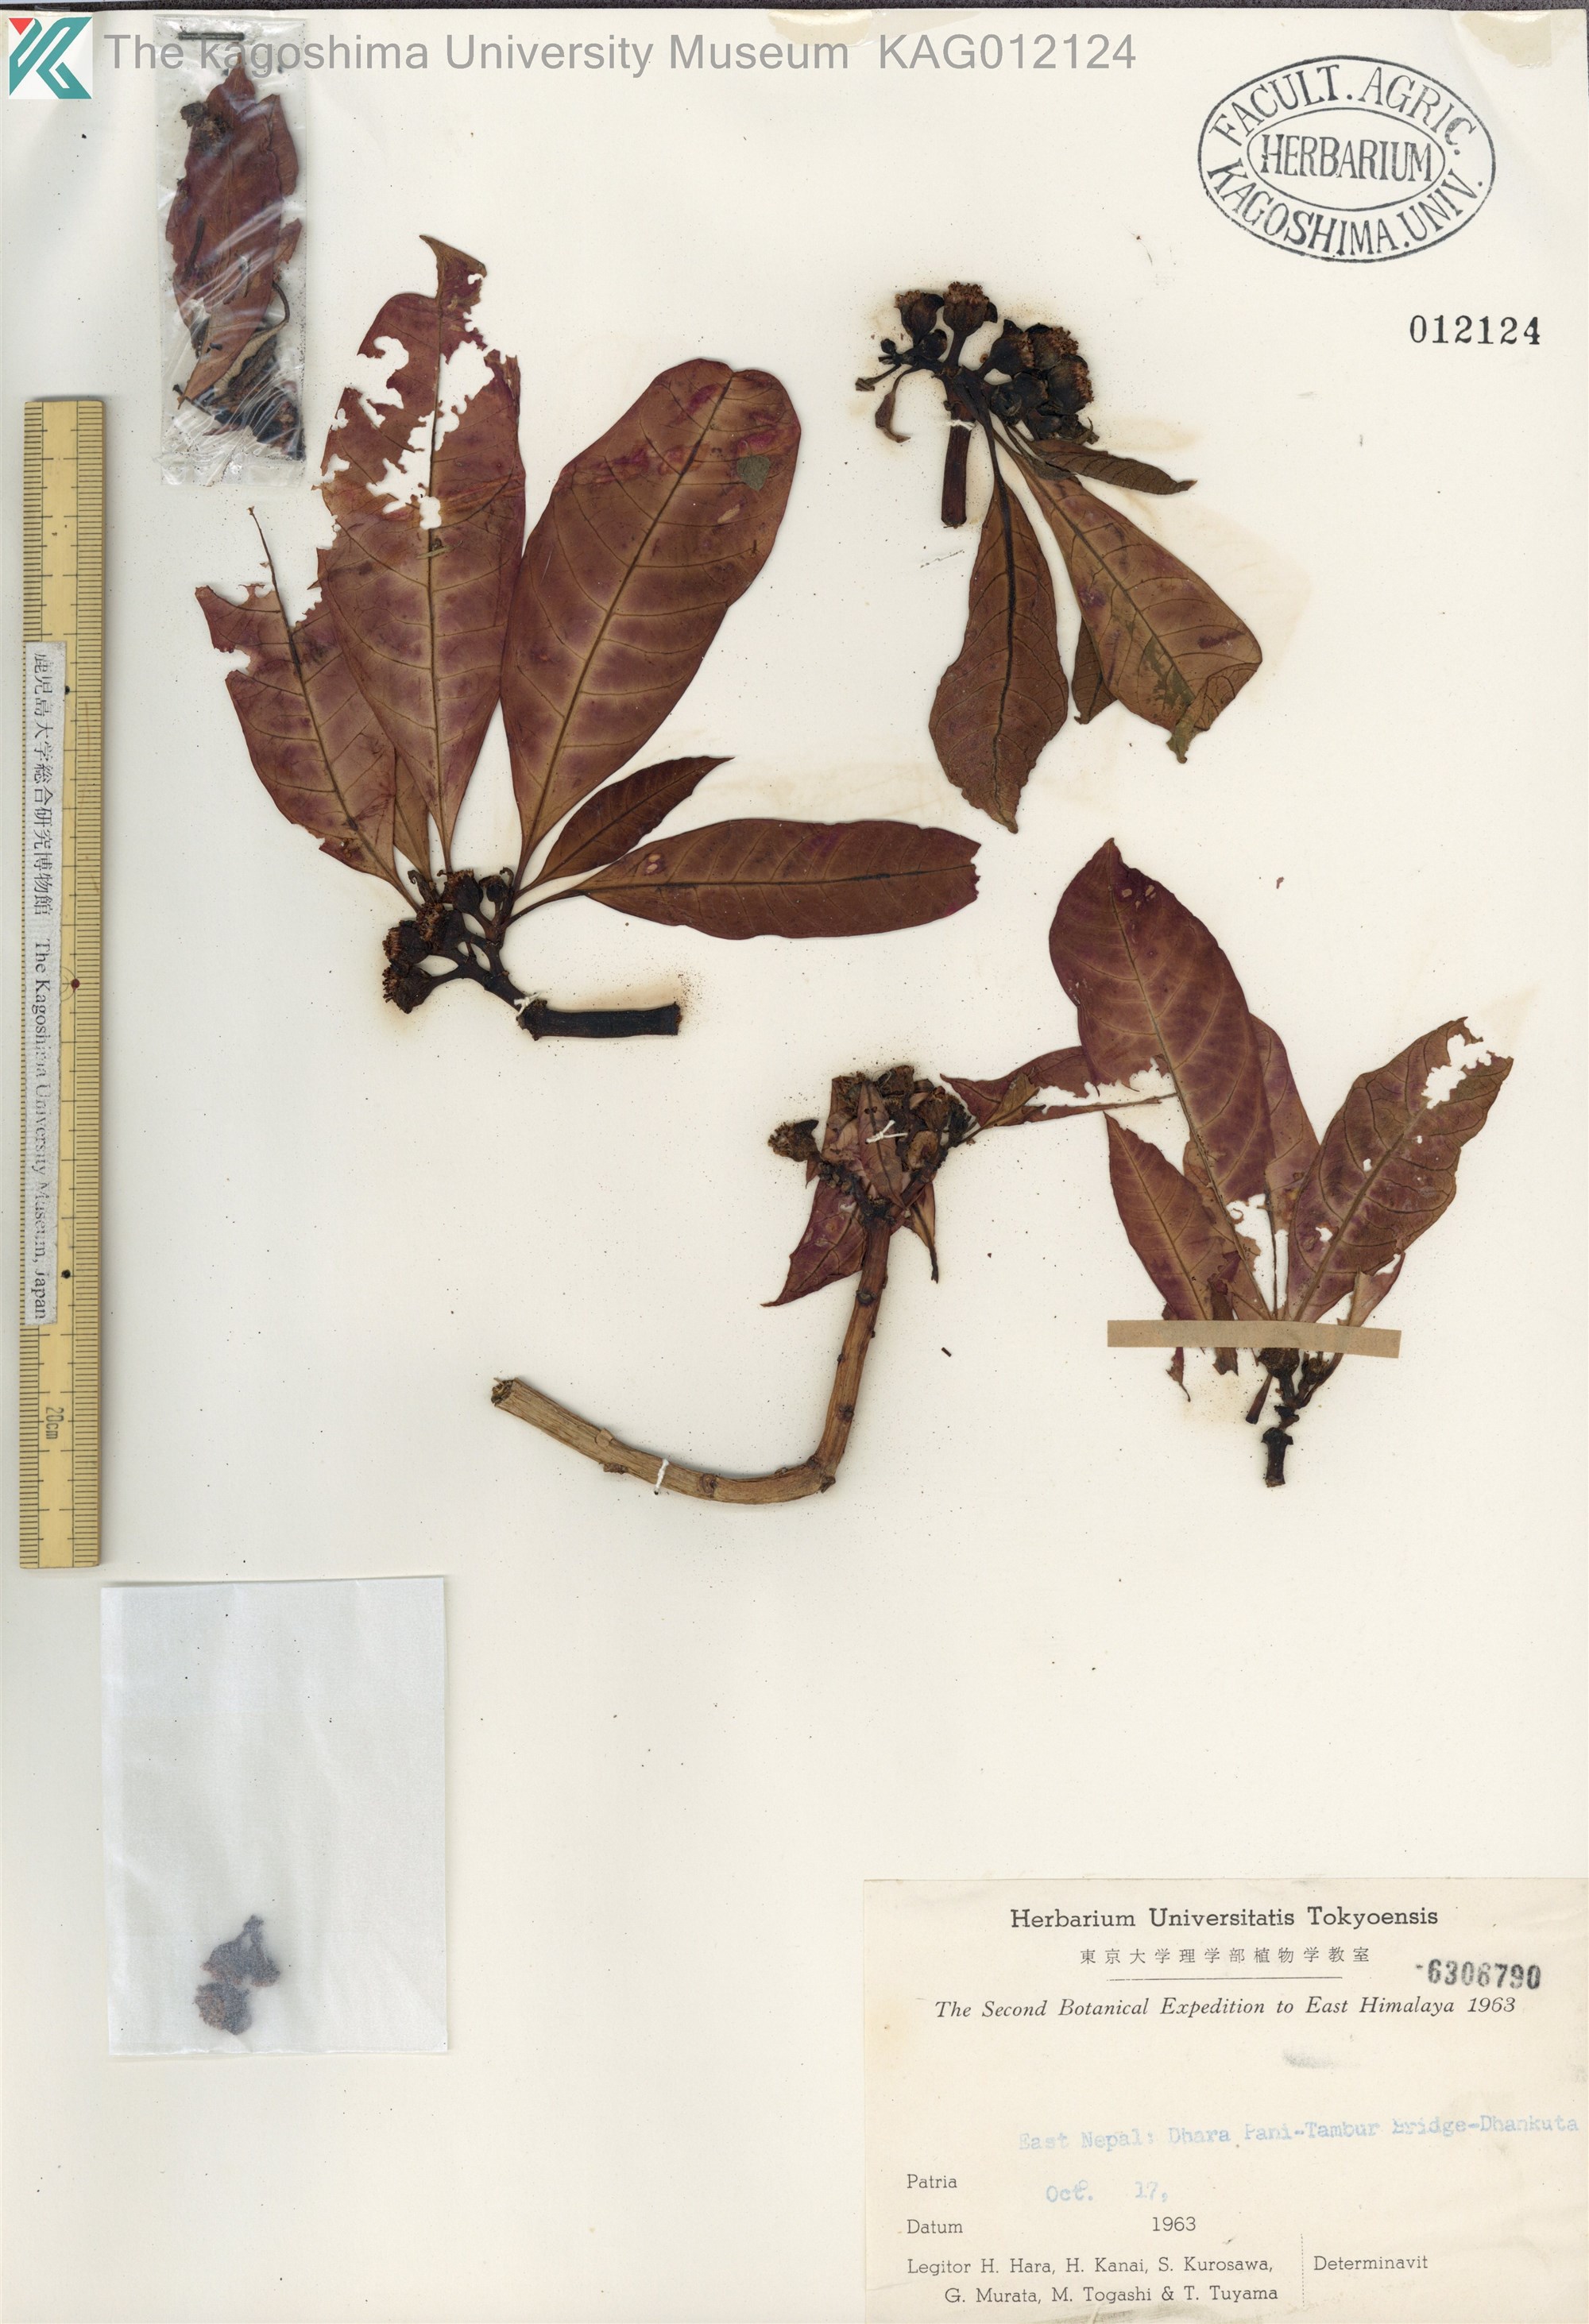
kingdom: Plantae
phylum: Tracheophyta
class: Magnoliopsida
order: Malpighiales
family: Euphorbiaceae
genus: Euphorbia
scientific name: Euphorbia pulcherrima
